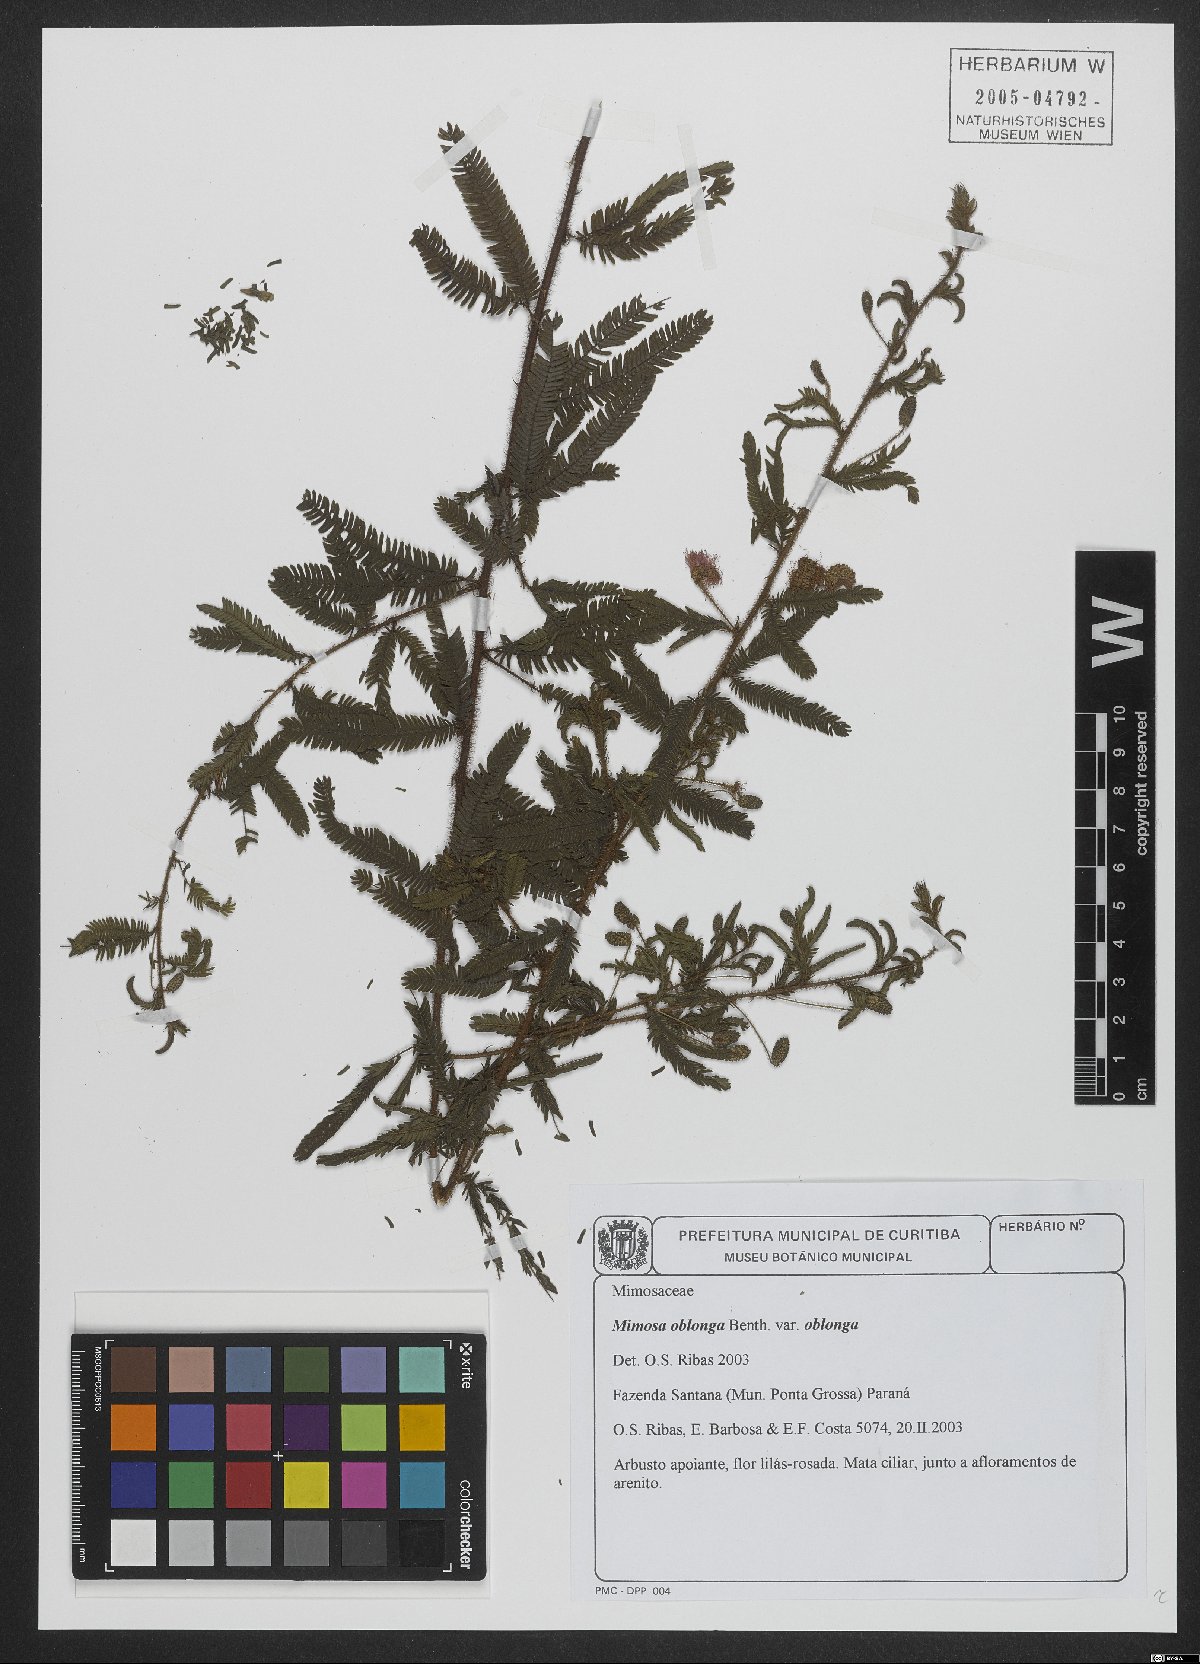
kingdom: Plantae
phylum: Tracheophyta
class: Magnoliopsida
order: Fabales
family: Fabaceae
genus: Mimosa
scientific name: Mimosa oblonga
